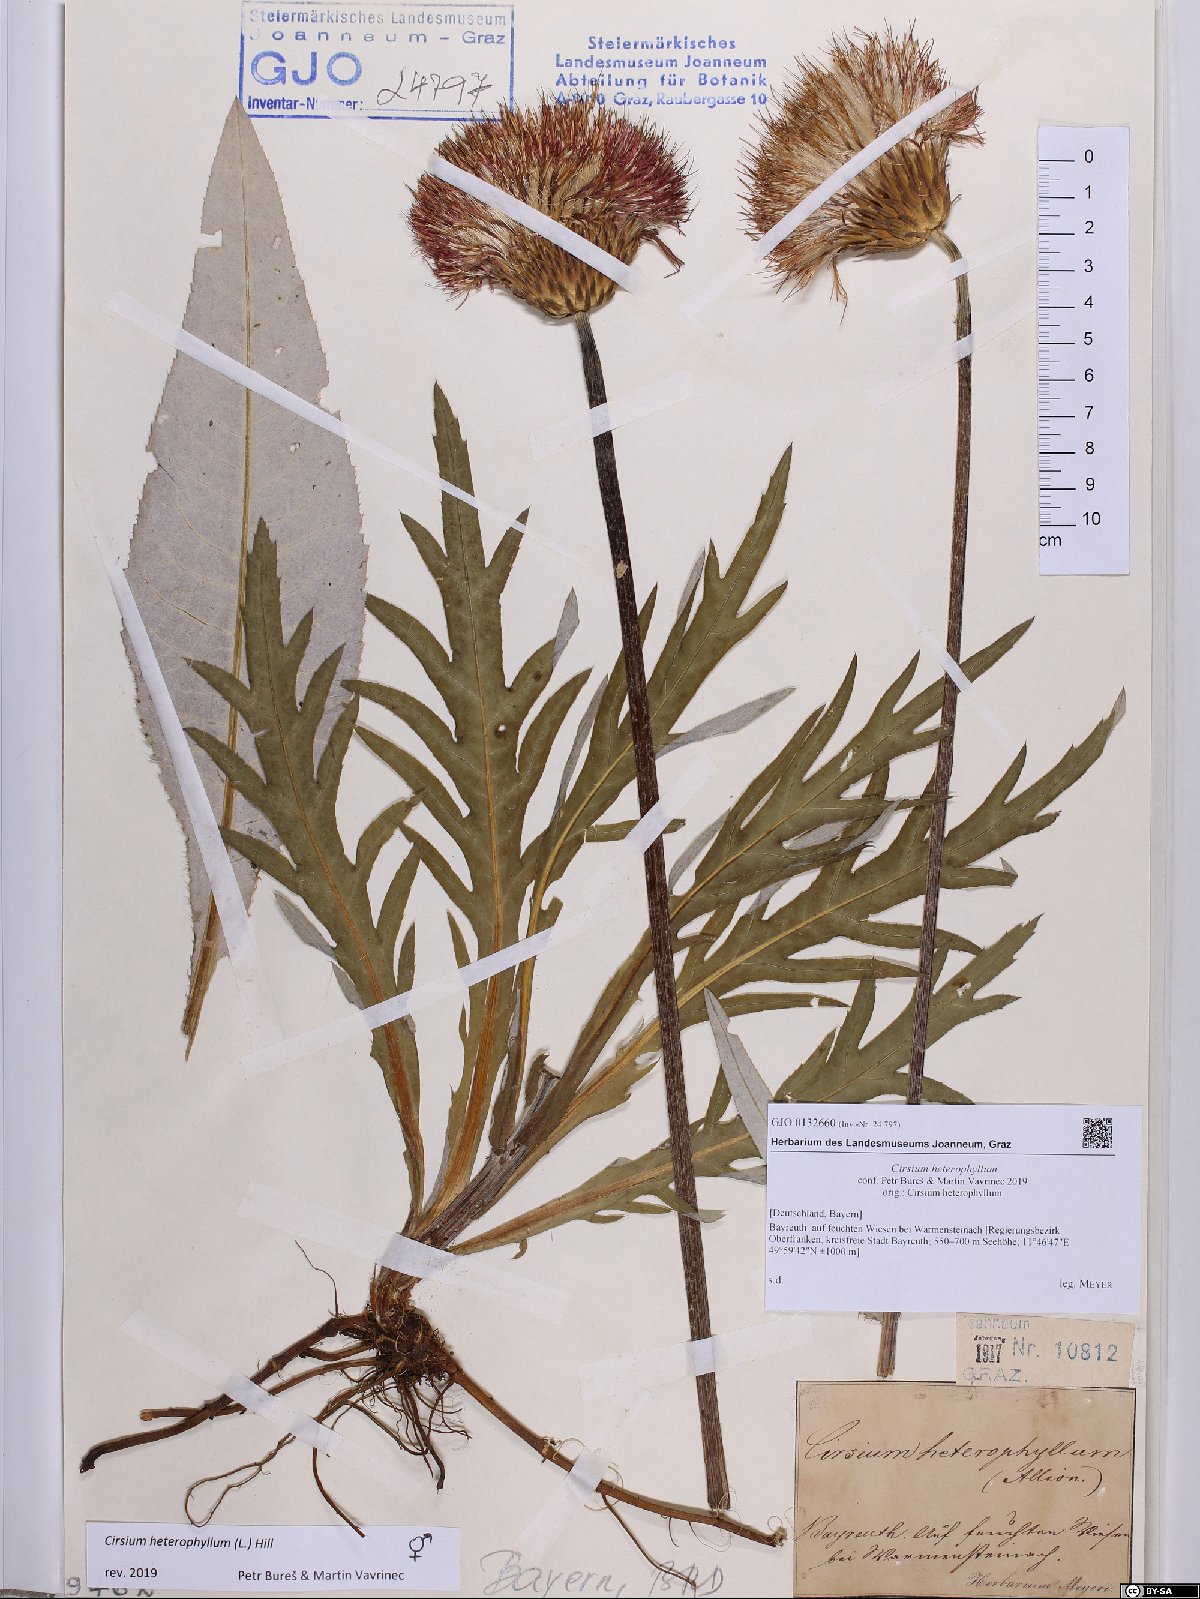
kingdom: Plantae
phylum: Tracheophyta
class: Magnoliopsida
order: Asterales
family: Asteraceae
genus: Cirsium
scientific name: Cirsium heterophyllum
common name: Melancholy thistle
